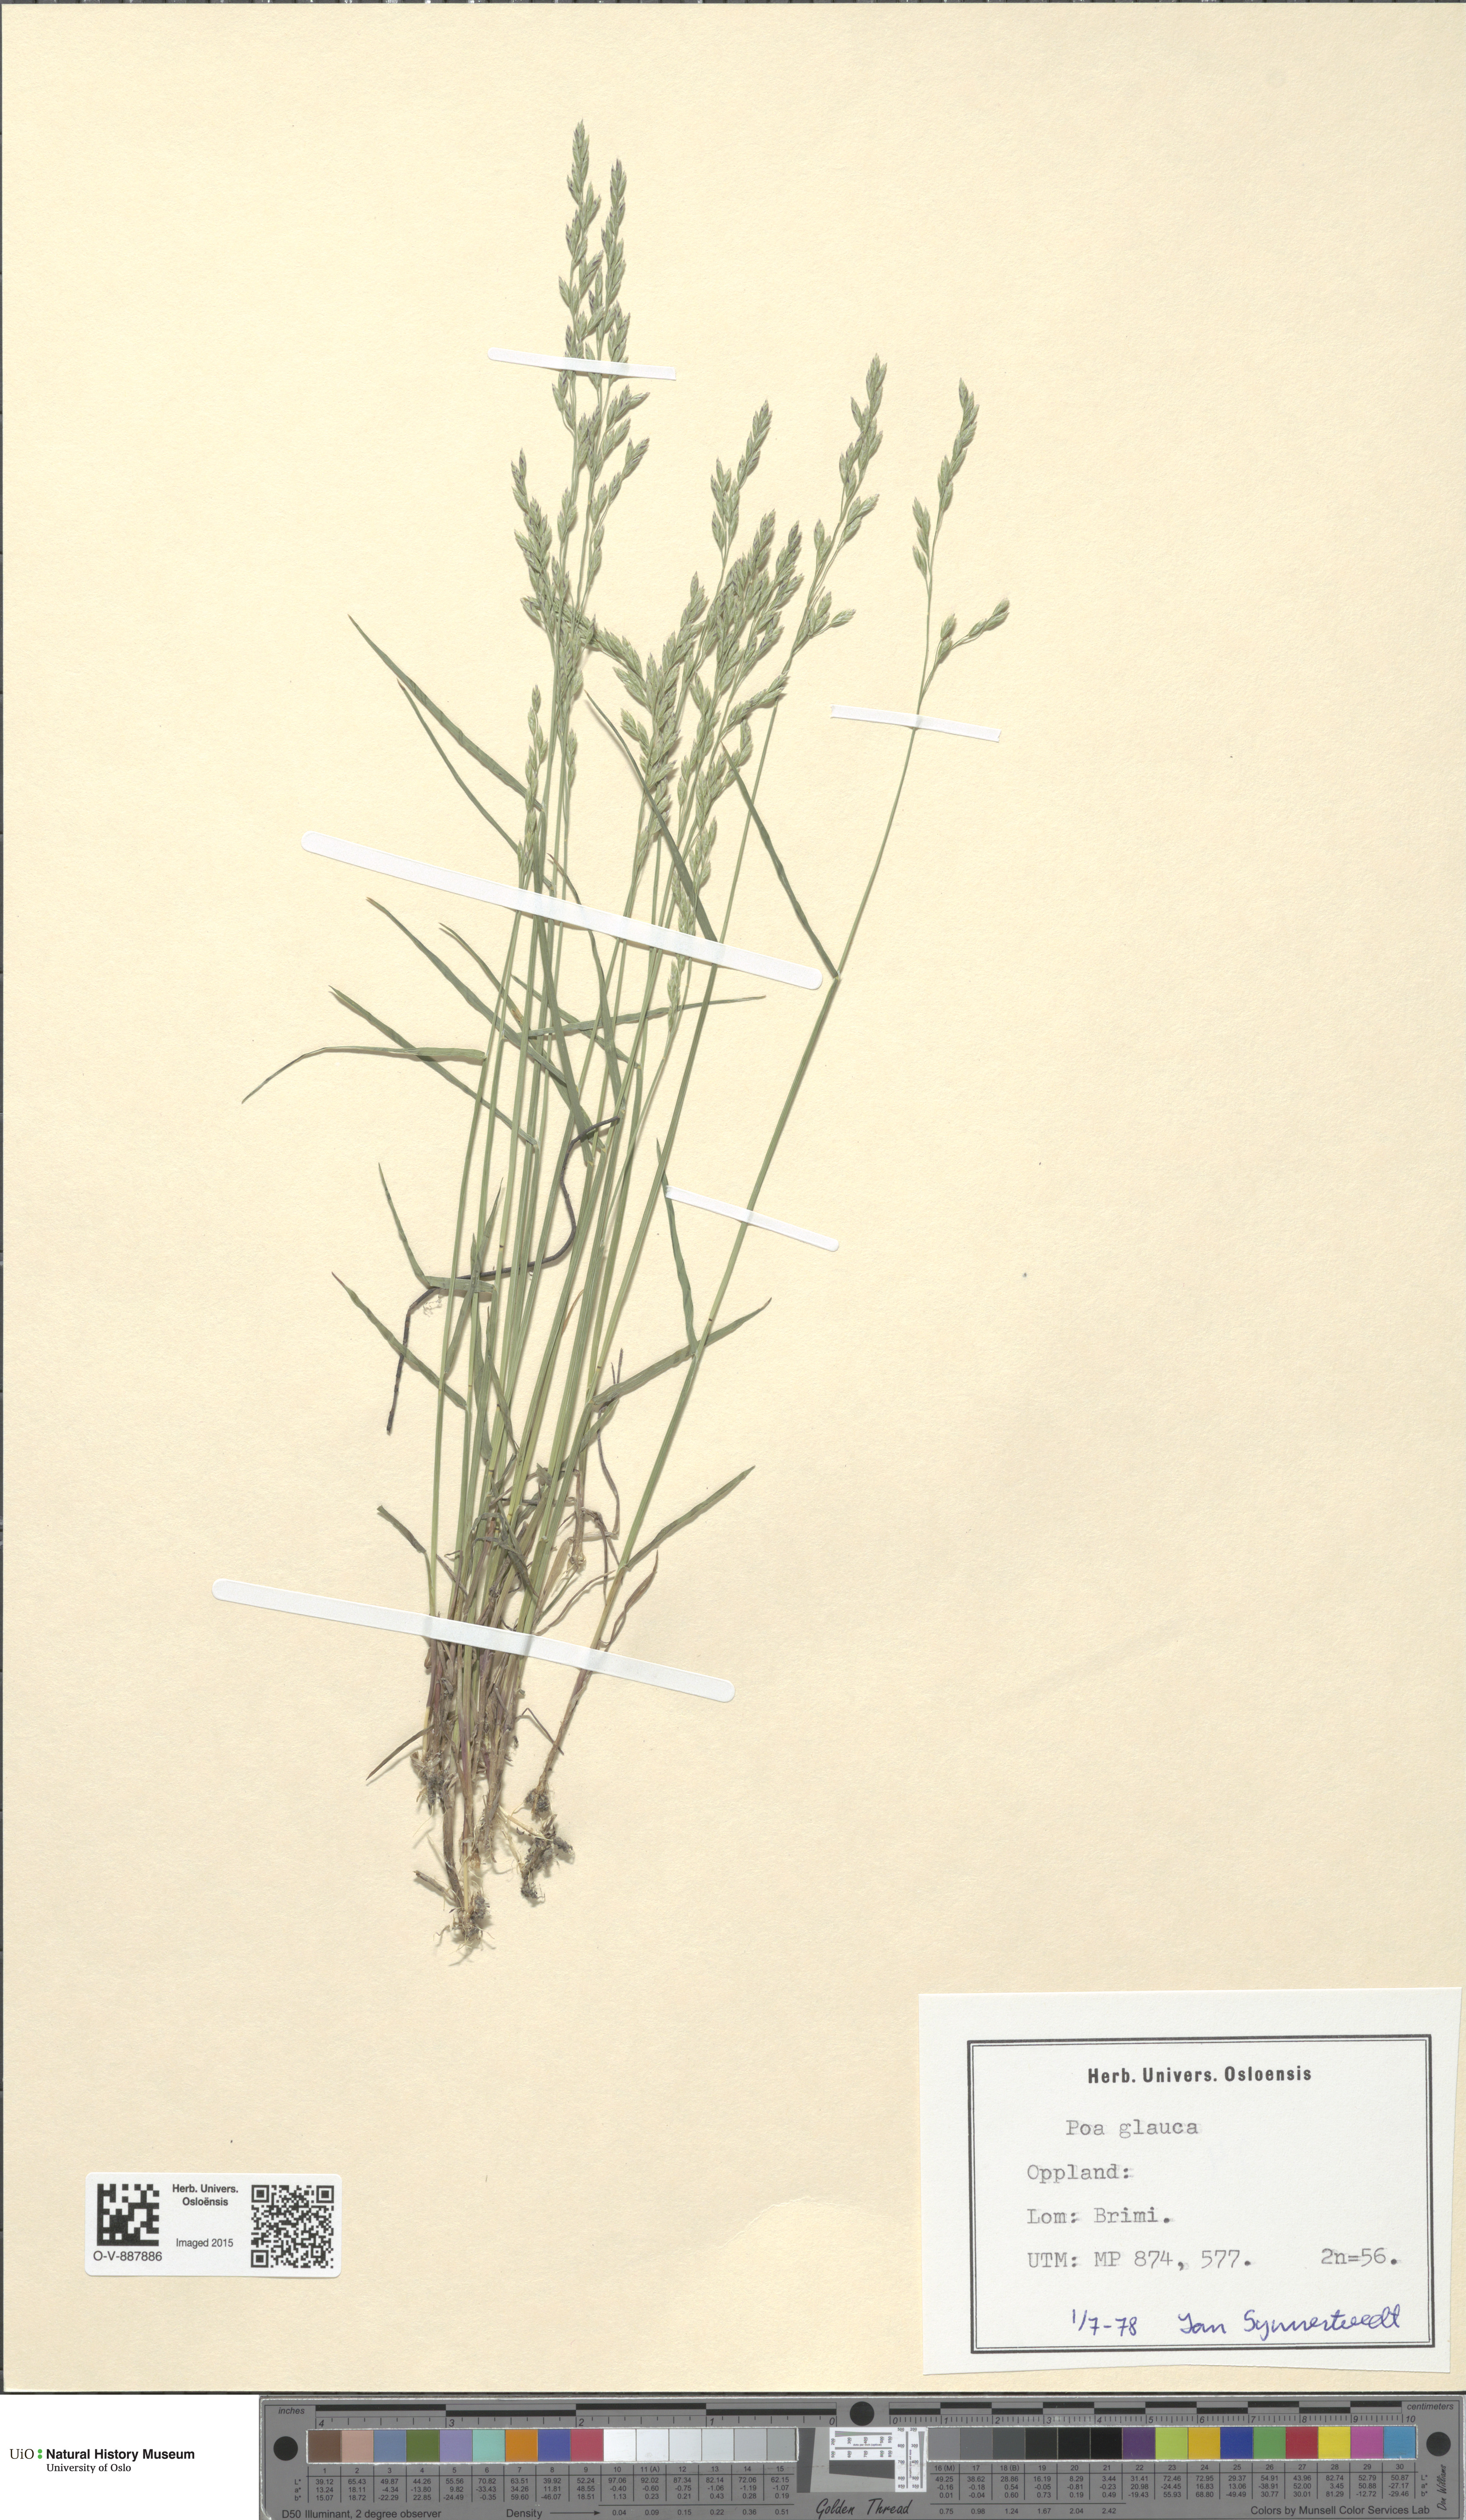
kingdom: Plantae
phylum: Tracheophyta
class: Liliopsida
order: Poales
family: Poaceae
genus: Poa
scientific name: Poa glauca
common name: Glaucous bluegrass
